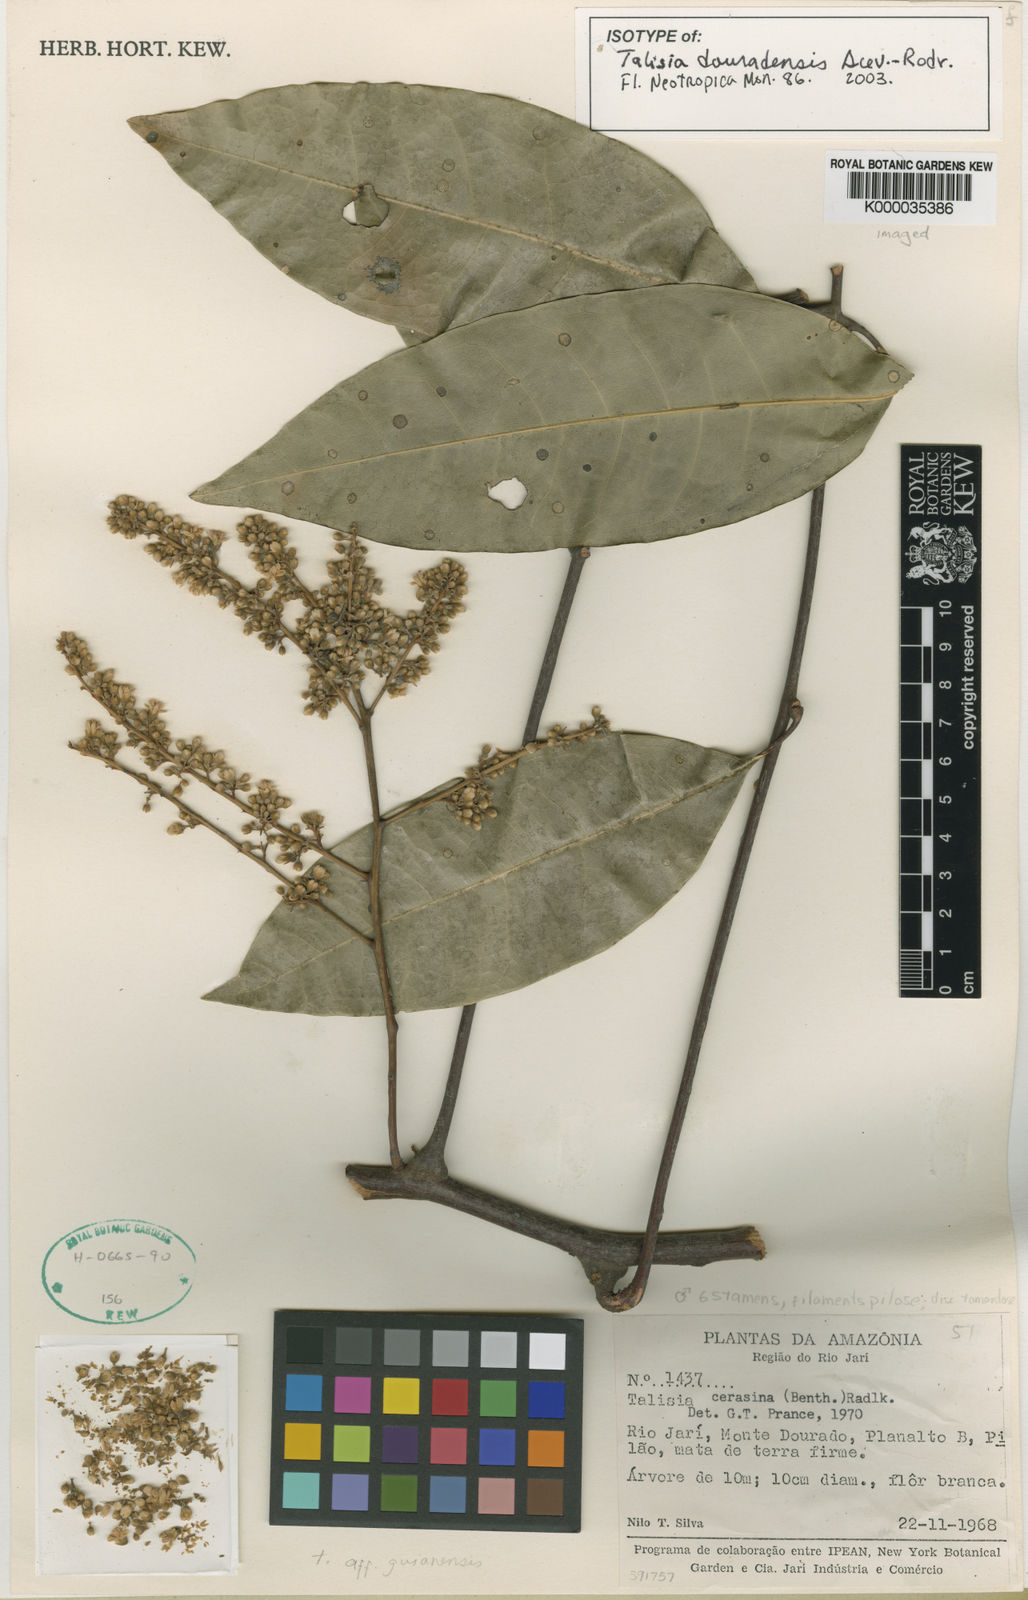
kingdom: Plantae
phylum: Tracheophyta
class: Magnoliopsida
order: Sapindales
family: Sapindaceae
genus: Talisia
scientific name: Talisia douradensis
